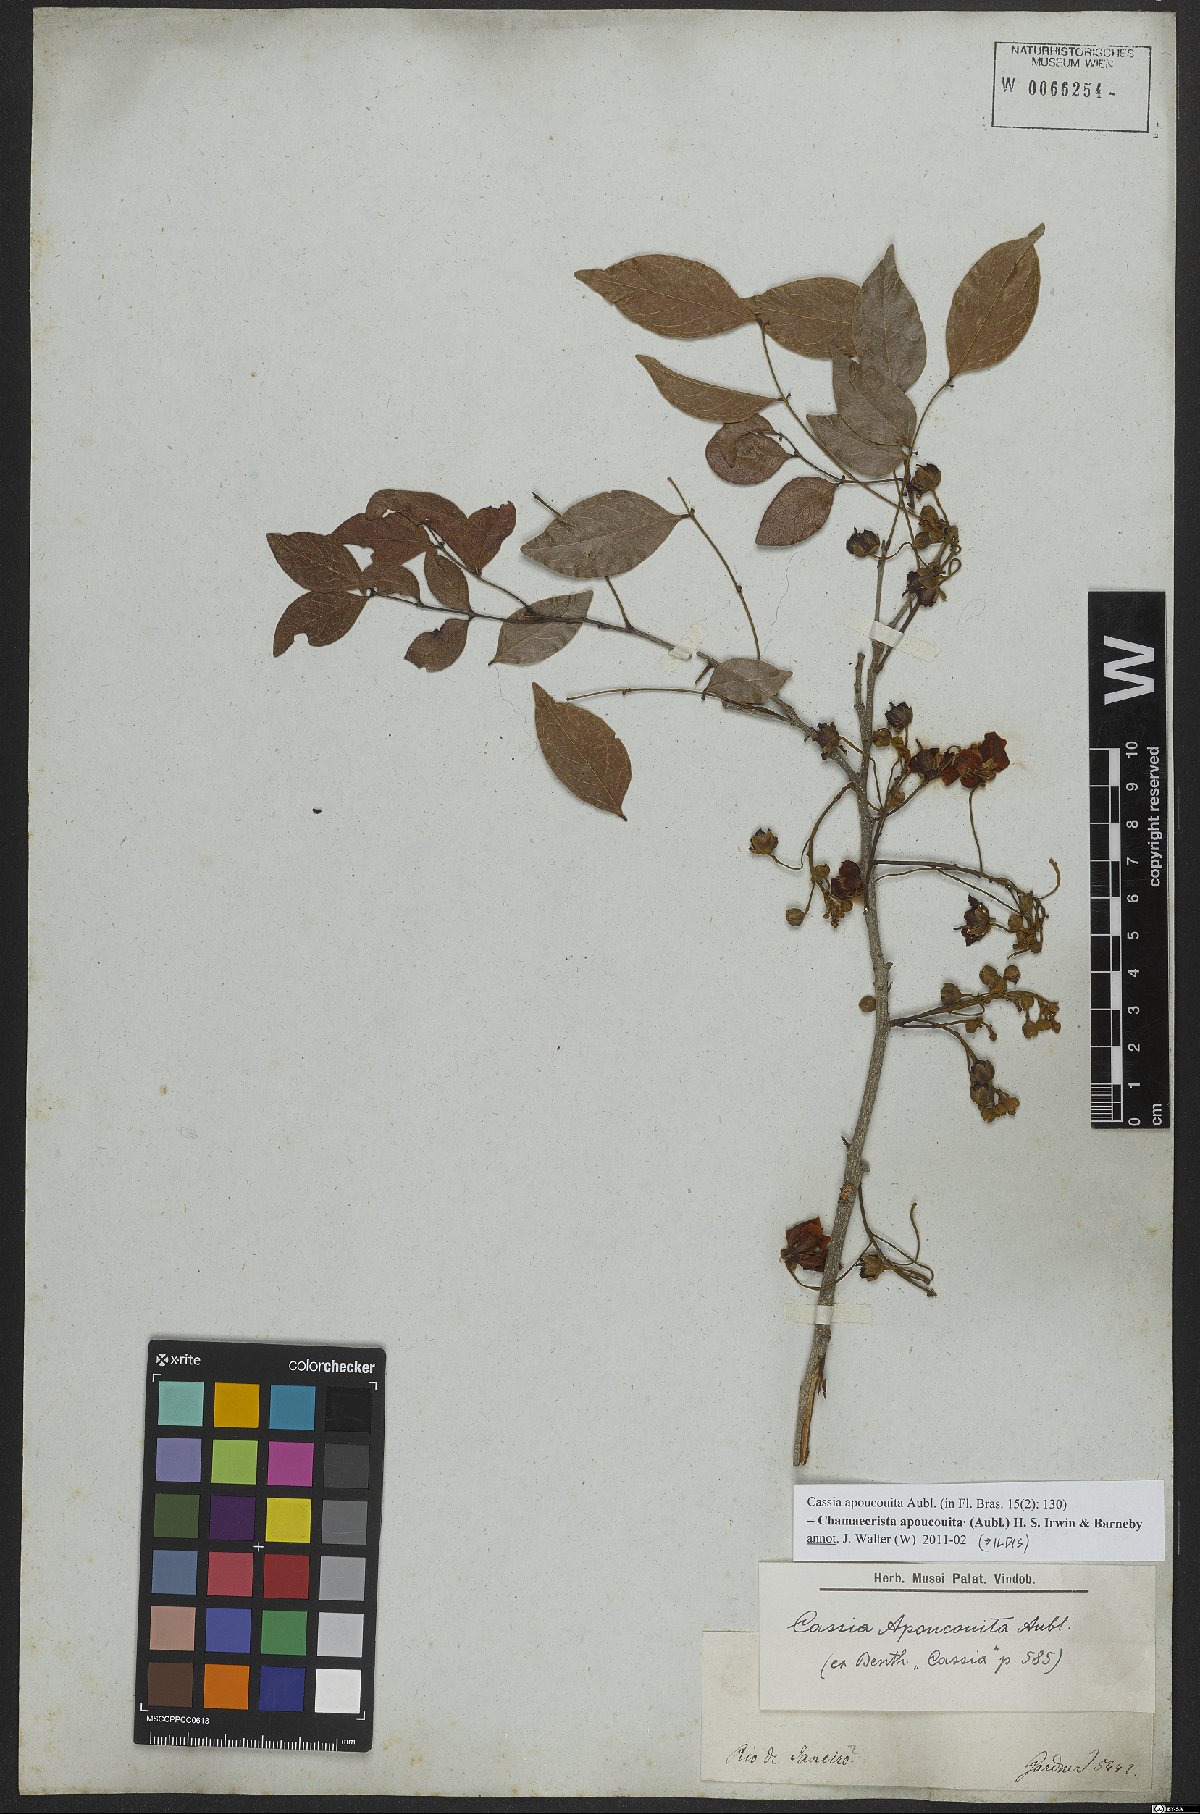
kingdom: Plantae
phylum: Tracheophyta
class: Magnoliopsida
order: Fabales
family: Fabaceae
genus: Chamaecrista
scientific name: Chamaecrista apoucouita
